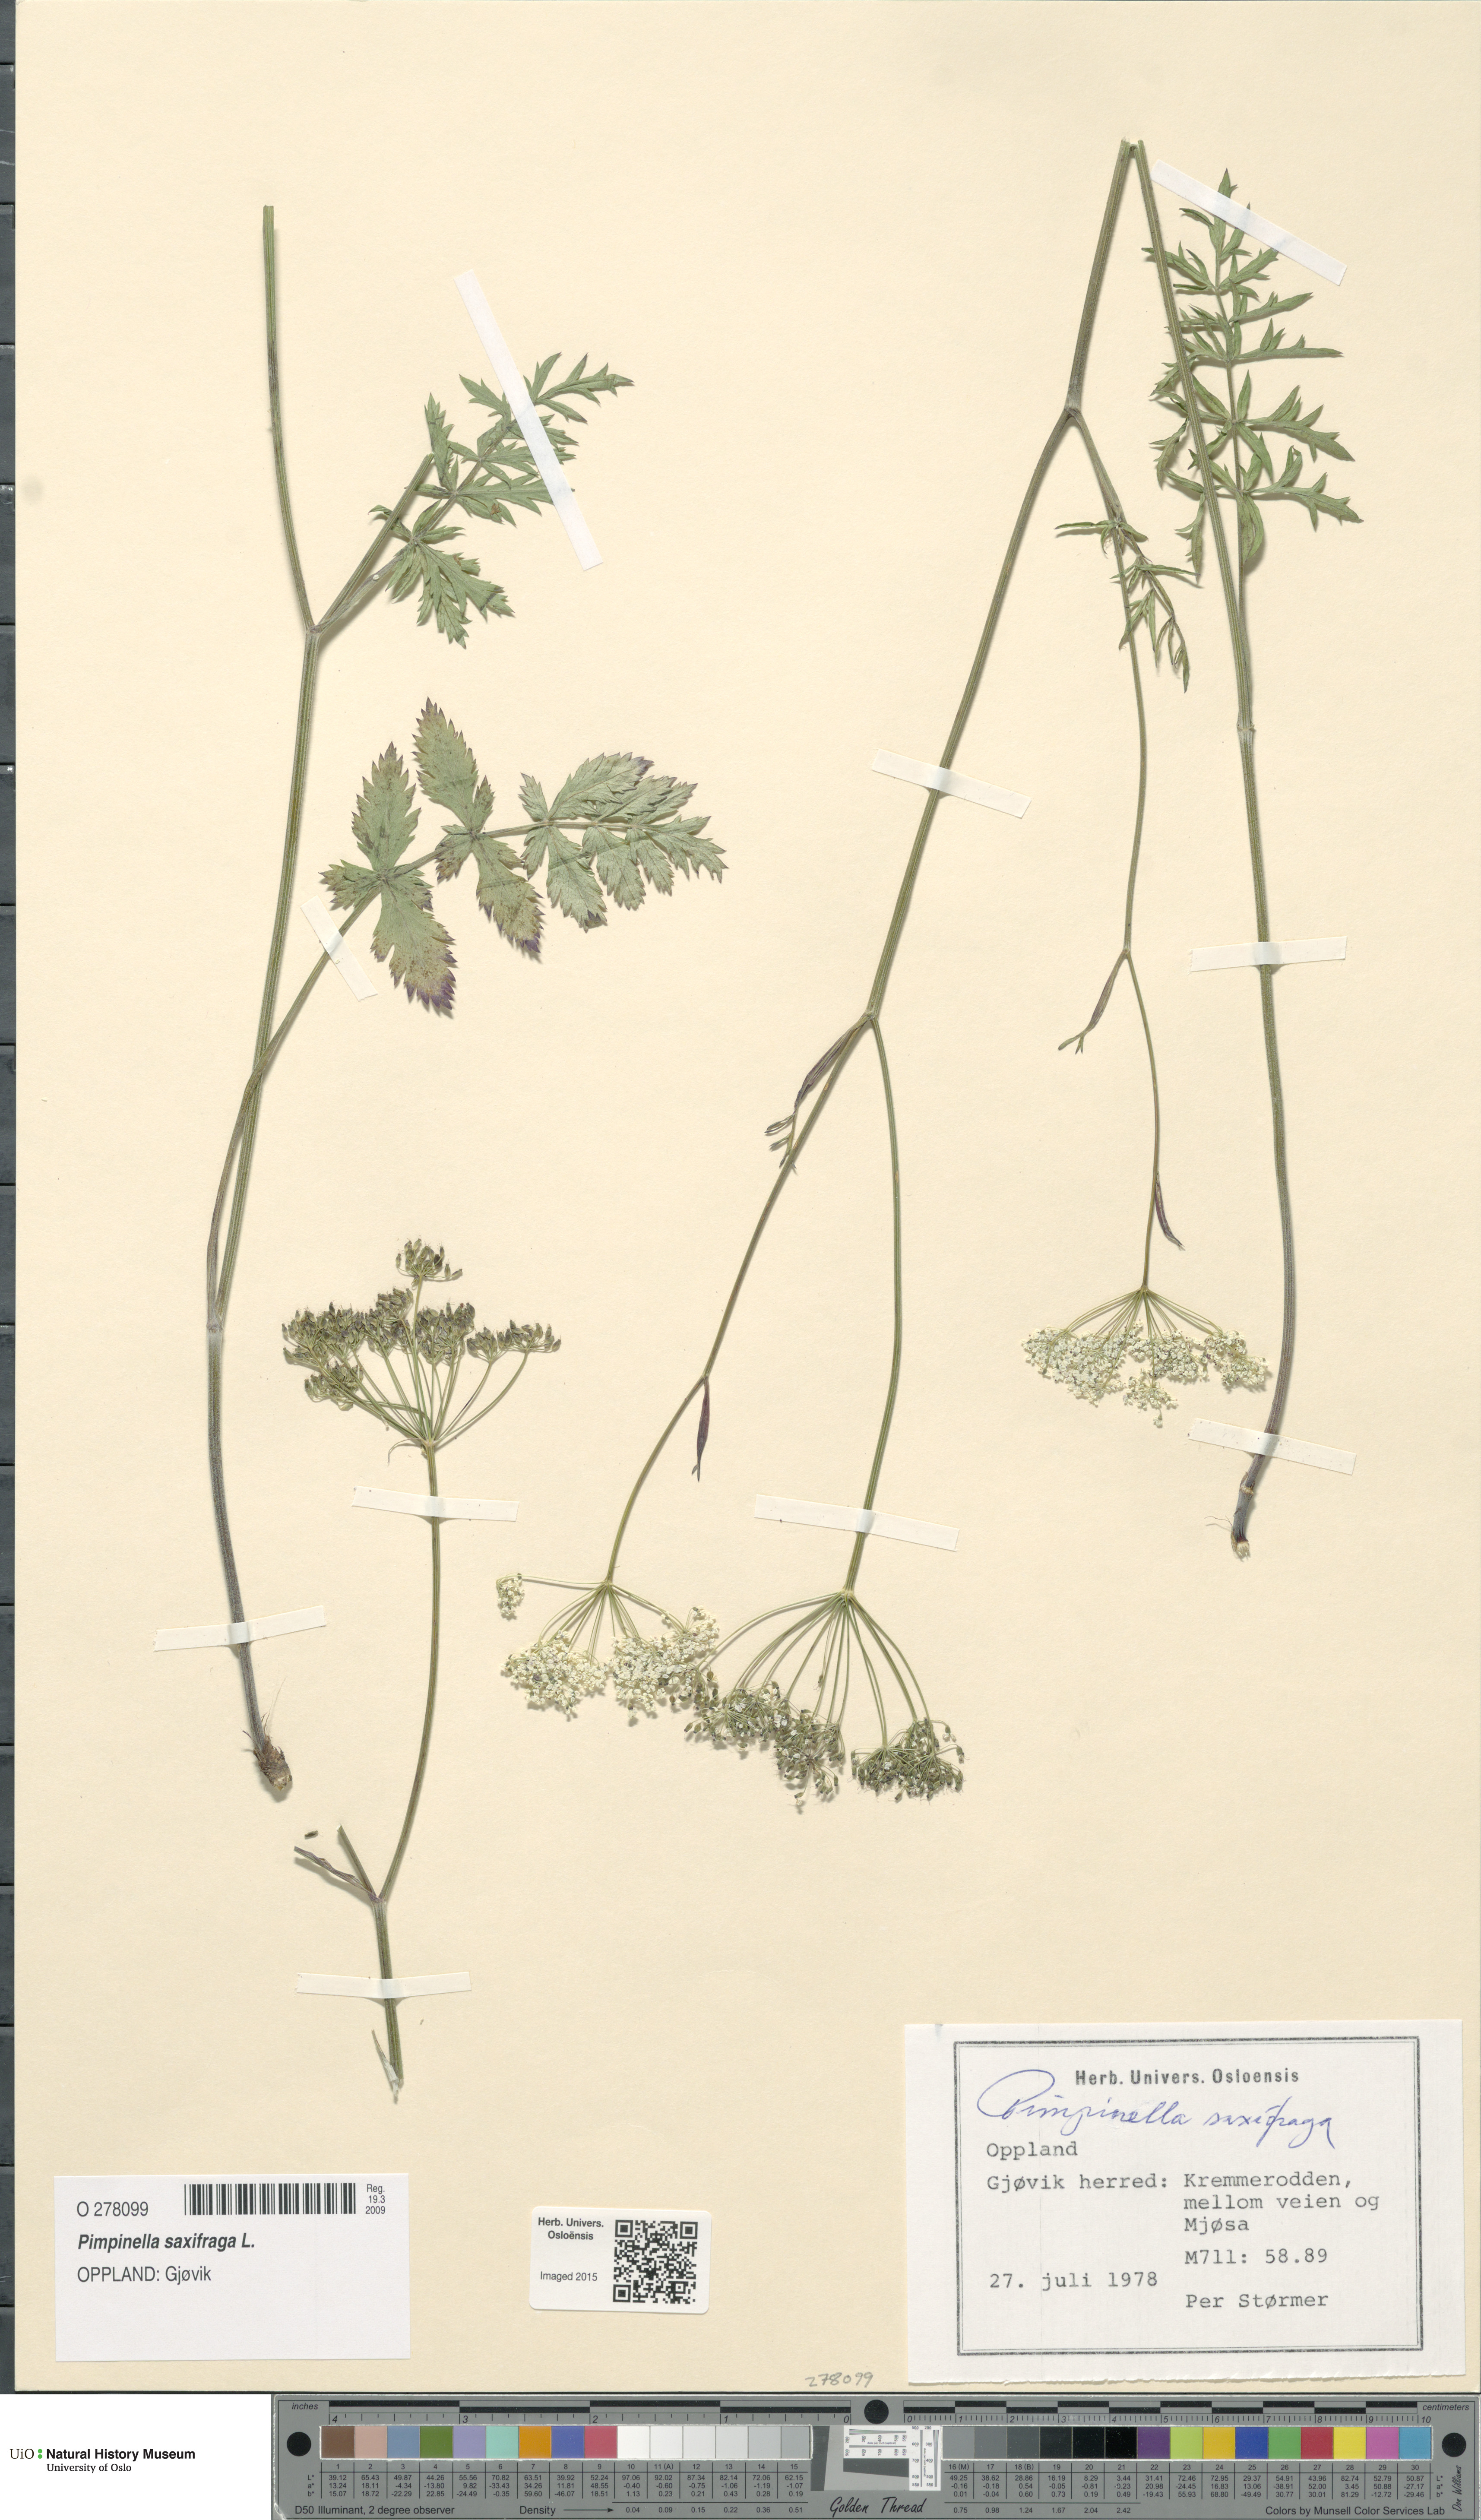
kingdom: Plantae
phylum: Tracheophyta
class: Magnoliopsida
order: Apiales
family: Apiaceae
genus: Pimpinella
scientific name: Pimpinella saxifraga
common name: Burnet-saxifrage
